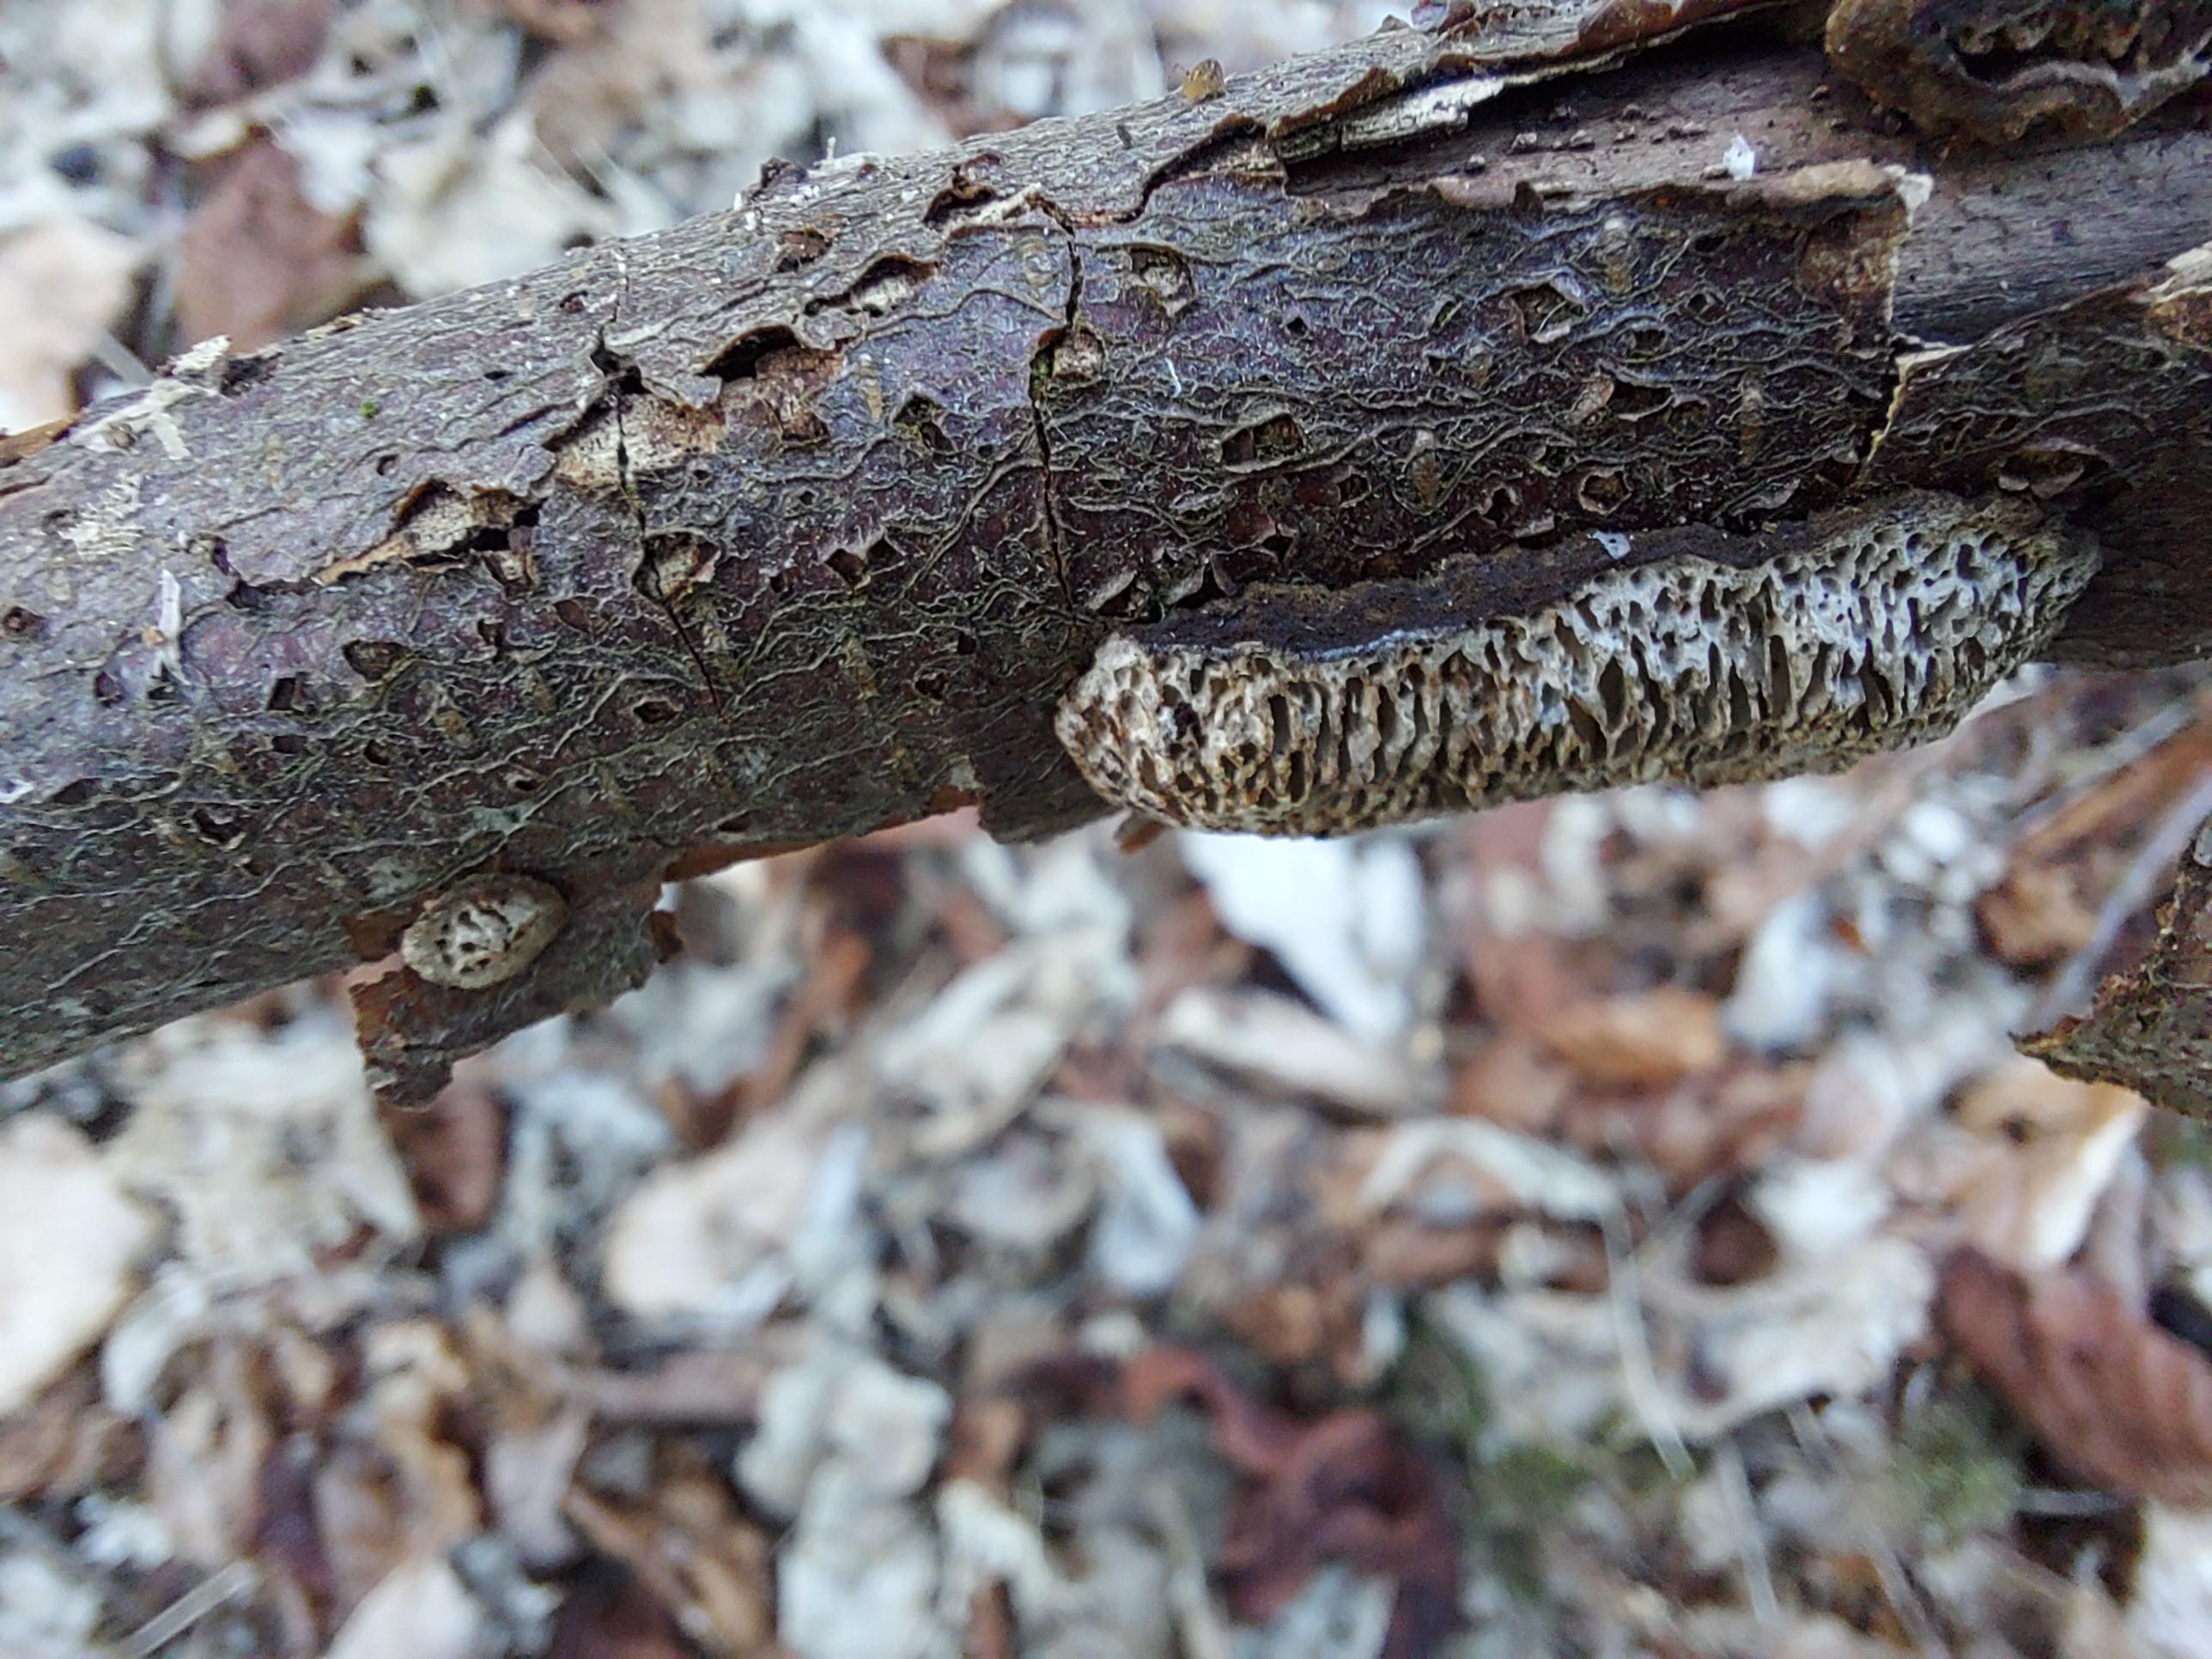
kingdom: Fungi
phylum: Basidiomycota
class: Agaricomycetes
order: Polyporales
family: Polyporaceae
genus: Podofomes
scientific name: Podofomes mollis
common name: blød begporesvamp
